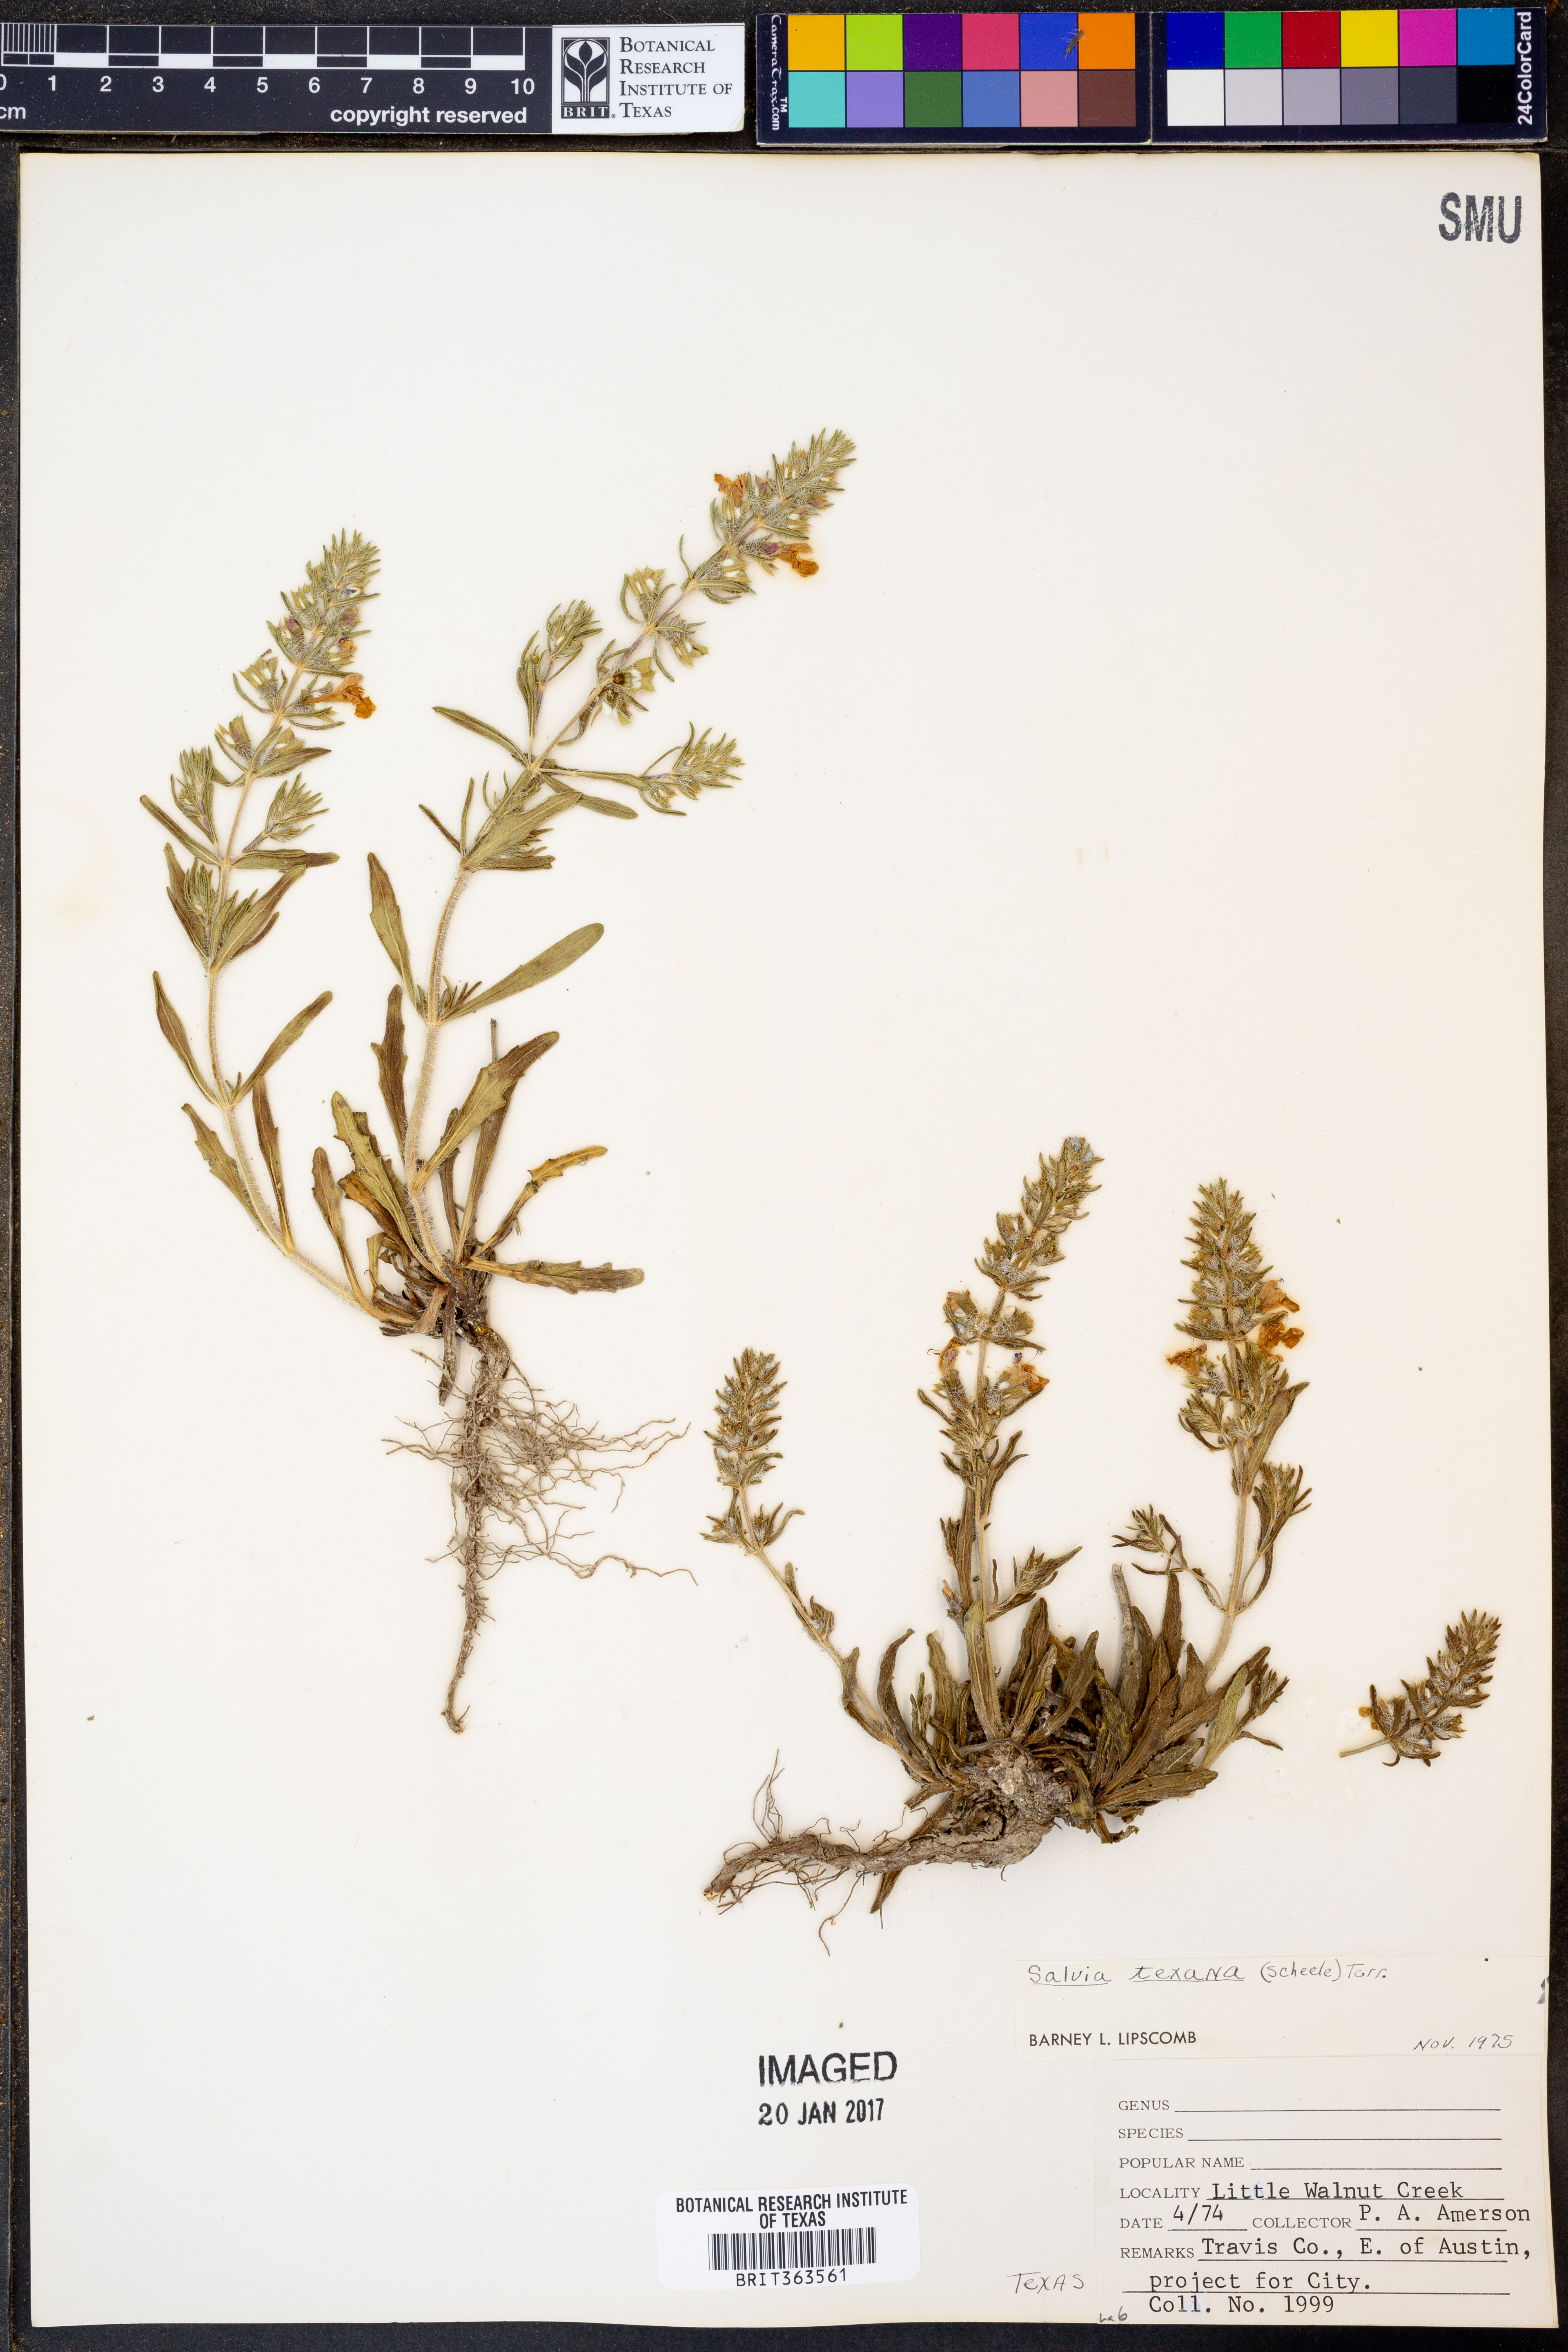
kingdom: Plantae
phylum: Tracheophyta
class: Magnoliopsida
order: Lamiales
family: Lamiaceae
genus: Salvia
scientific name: Salvia texana
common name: Texas sage
